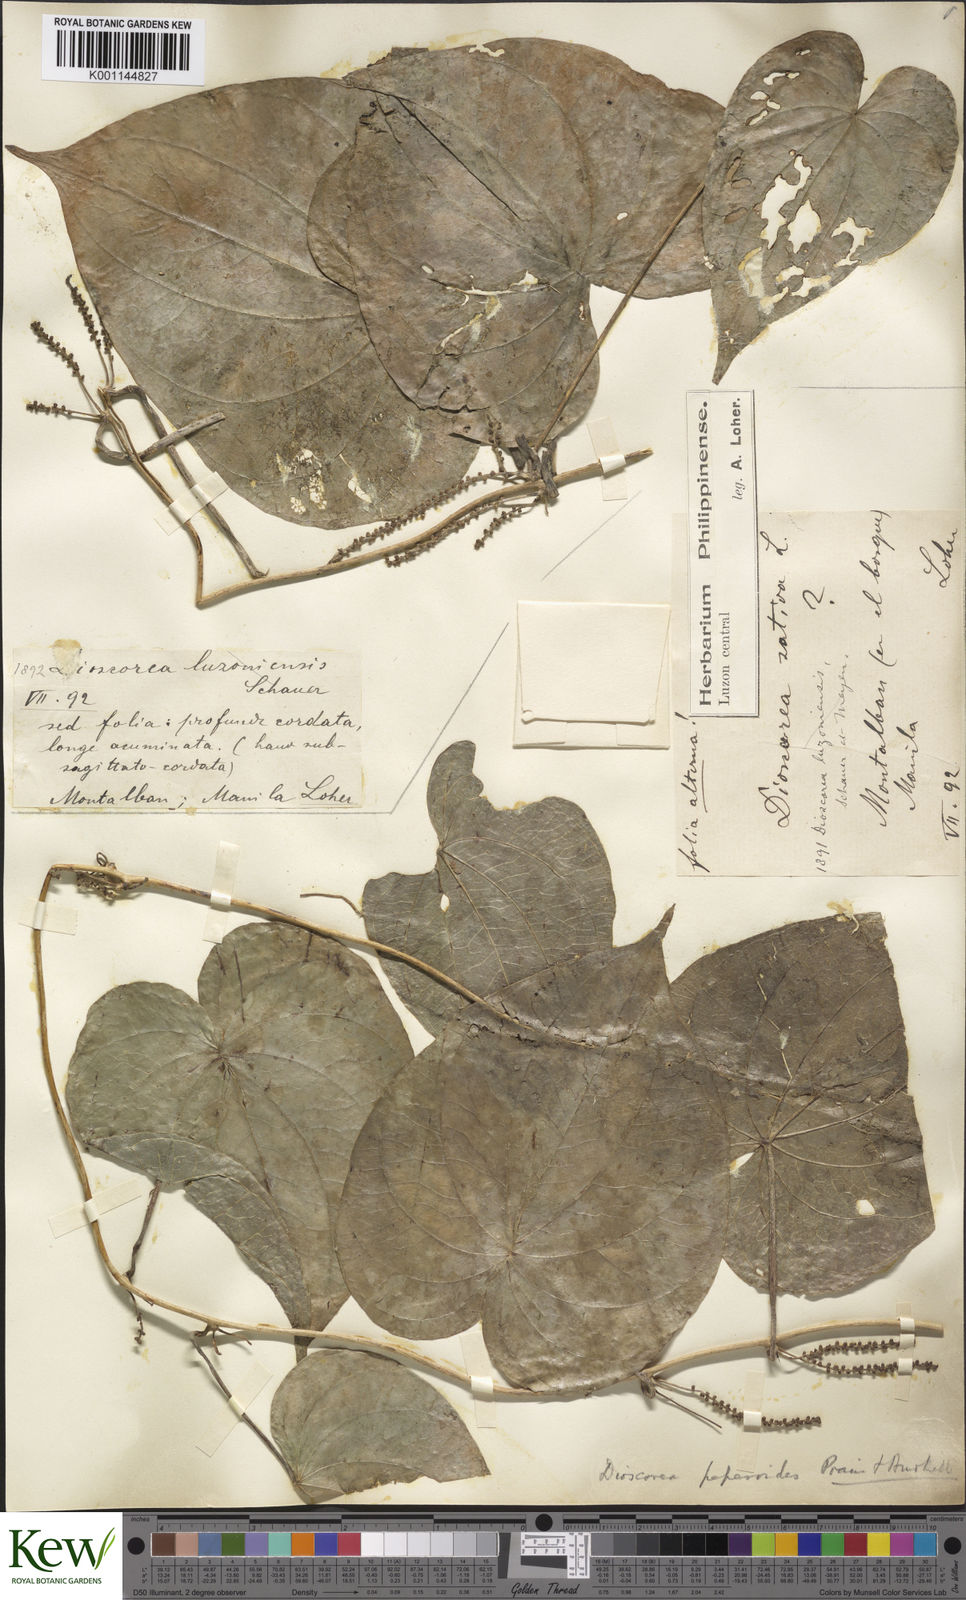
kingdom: Plantae
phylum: Tracheophyta
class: Liliopsida
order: Dioscoreales
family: Dioscoreaceae
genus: Dioscorea
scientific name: Dioscorea peperoides
